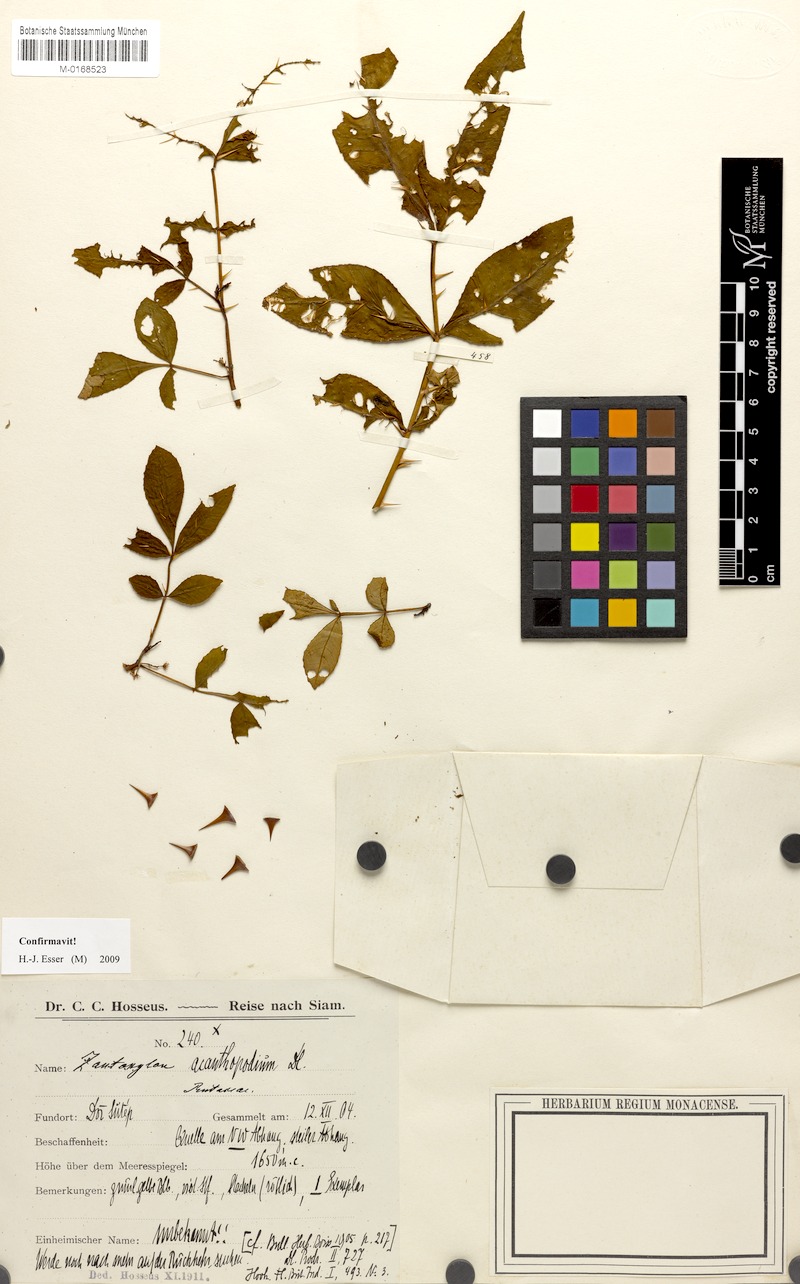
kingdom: Plantae
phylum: Tracheophyta
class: Magnoliopsida
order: Sapindales
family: Rutaceae
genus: Zanthoxylum
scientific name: Zanthoxylum acanthopodium
